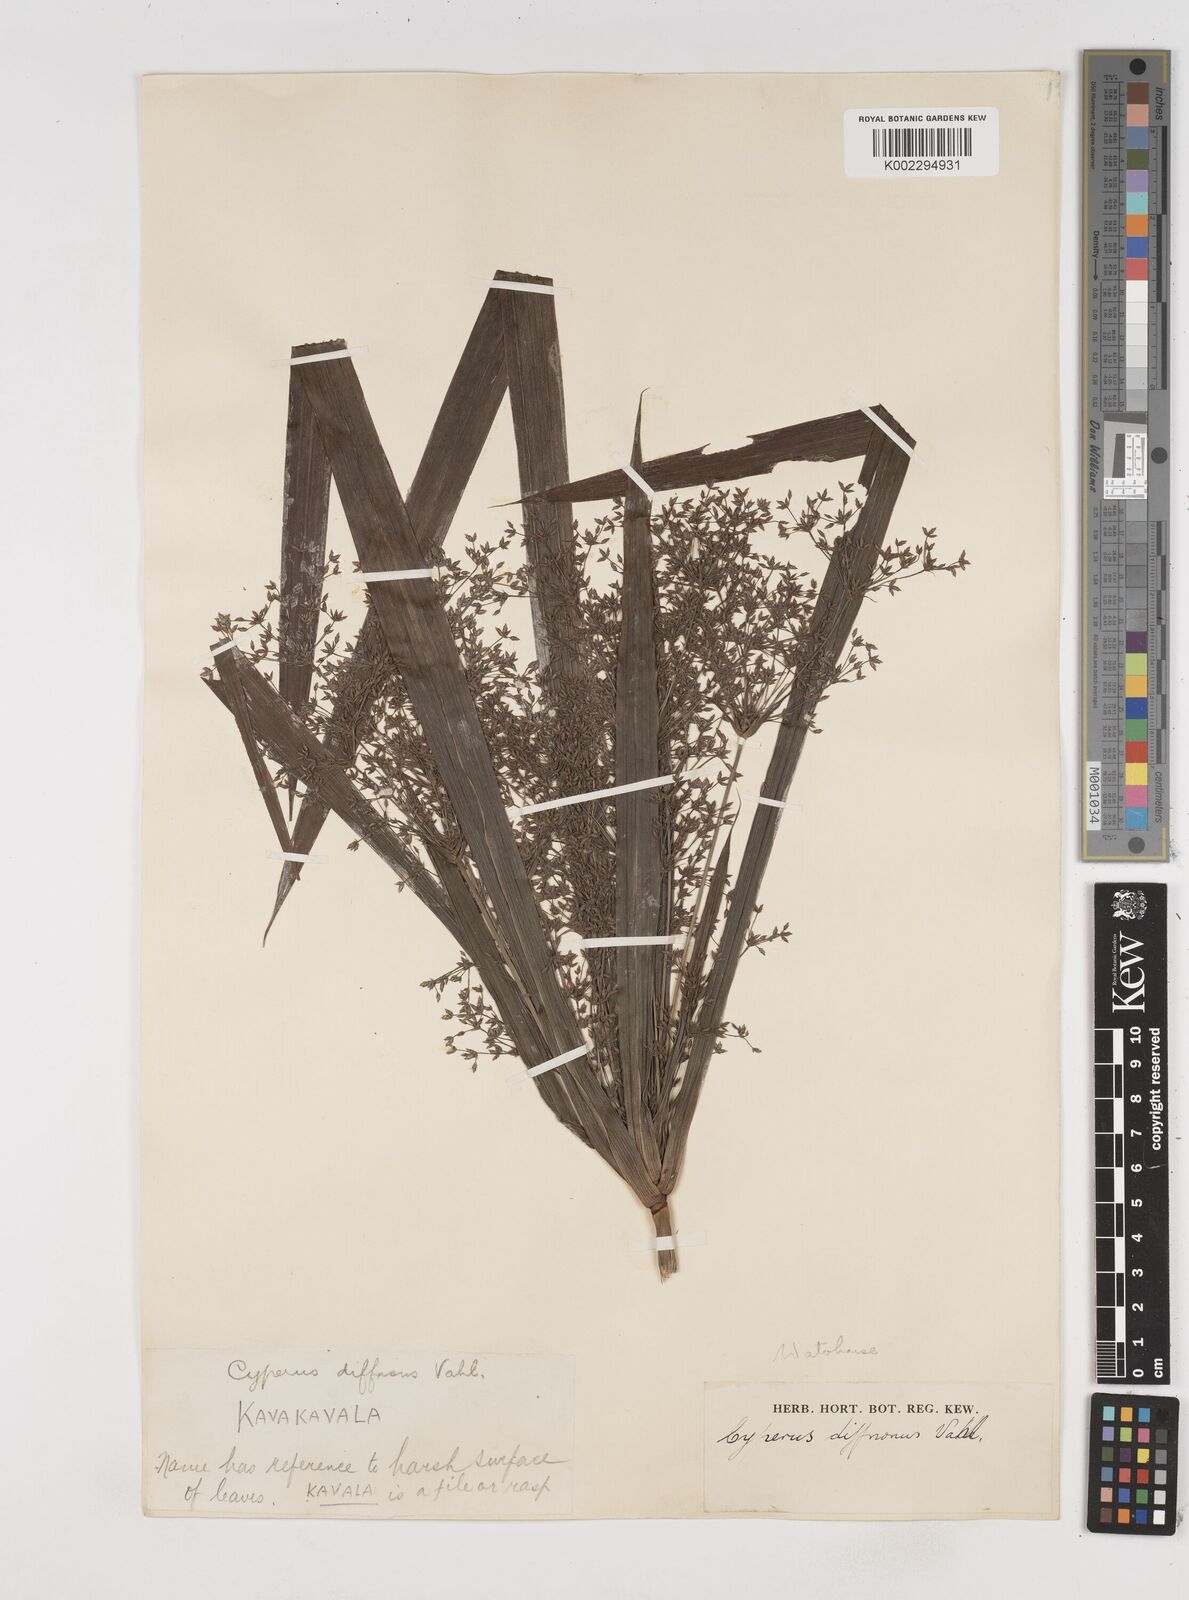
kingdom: Plantae
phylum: Tracheophyta
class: Liliopsida
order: Poales
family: Cyperaceae
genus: Cyperus
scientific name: Cyperus diffusus
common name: Dwarf umbrella grass
